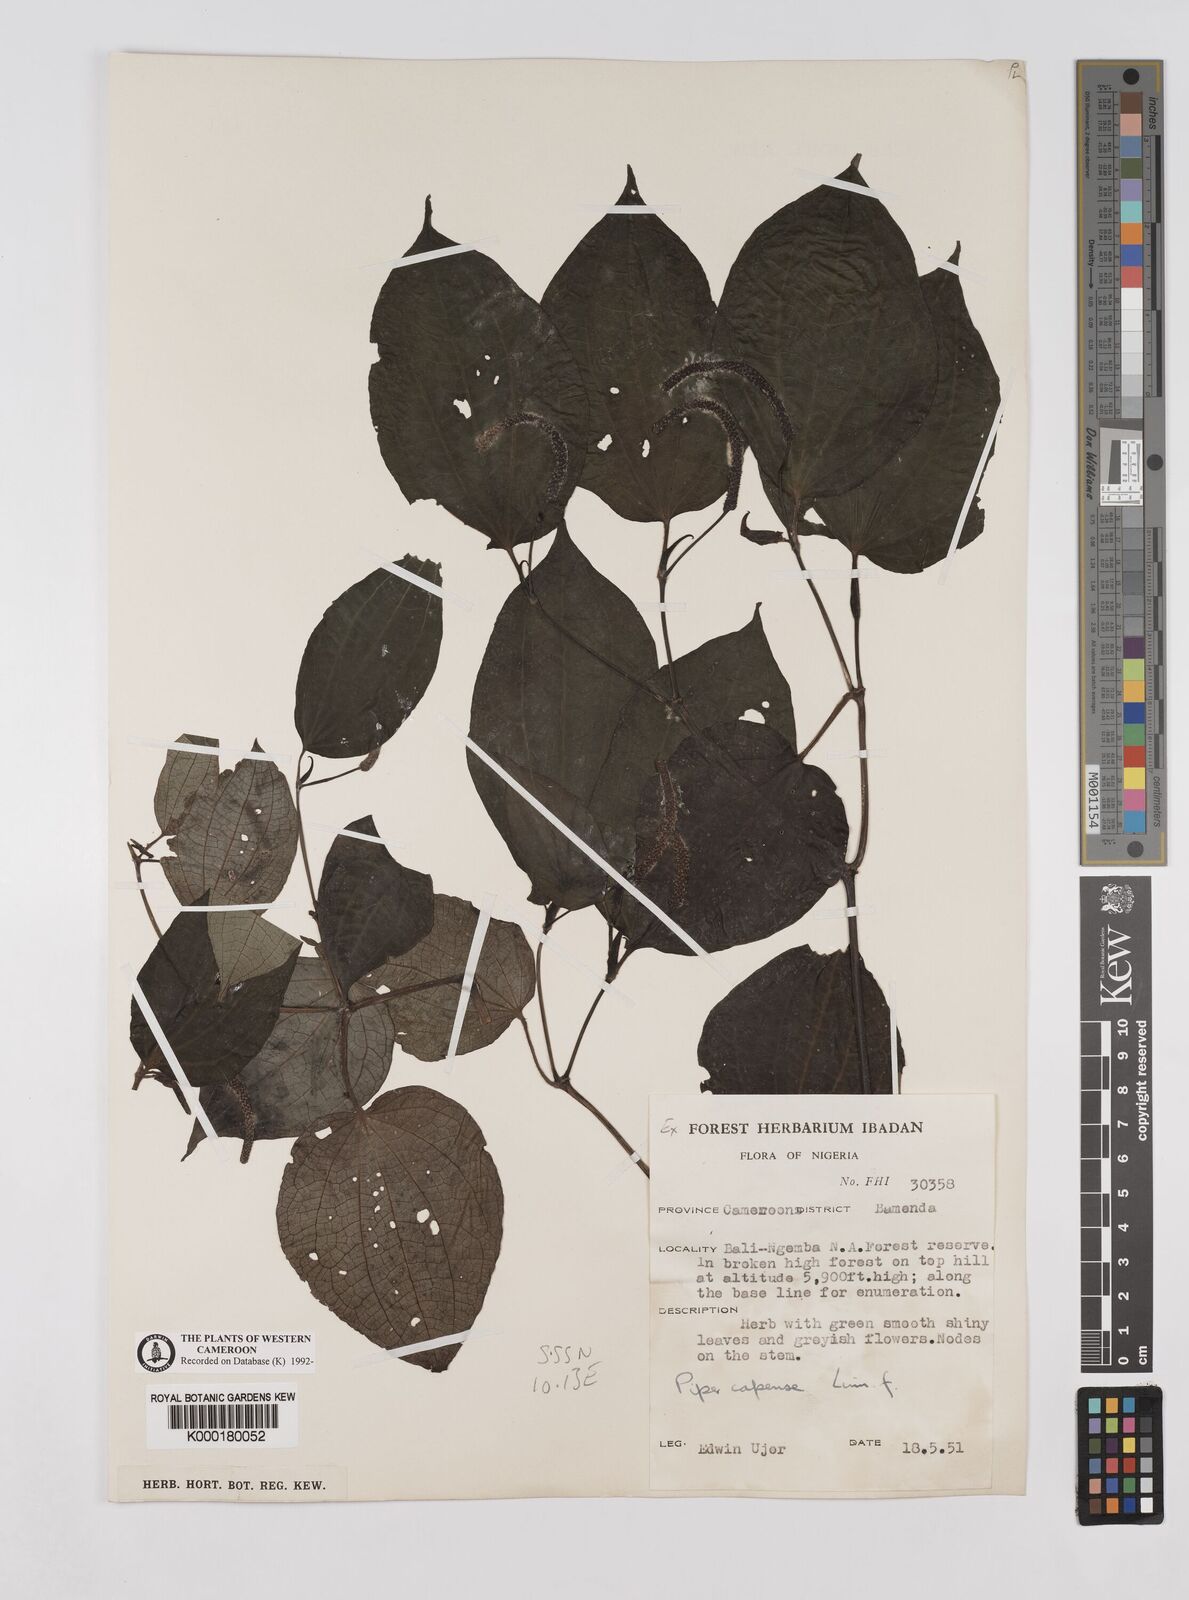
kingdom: Plantae
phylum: Tracheophyta
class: Magnoliopsida
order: Piperales
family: Piperaceae
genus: Piper
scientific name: Piper capense
